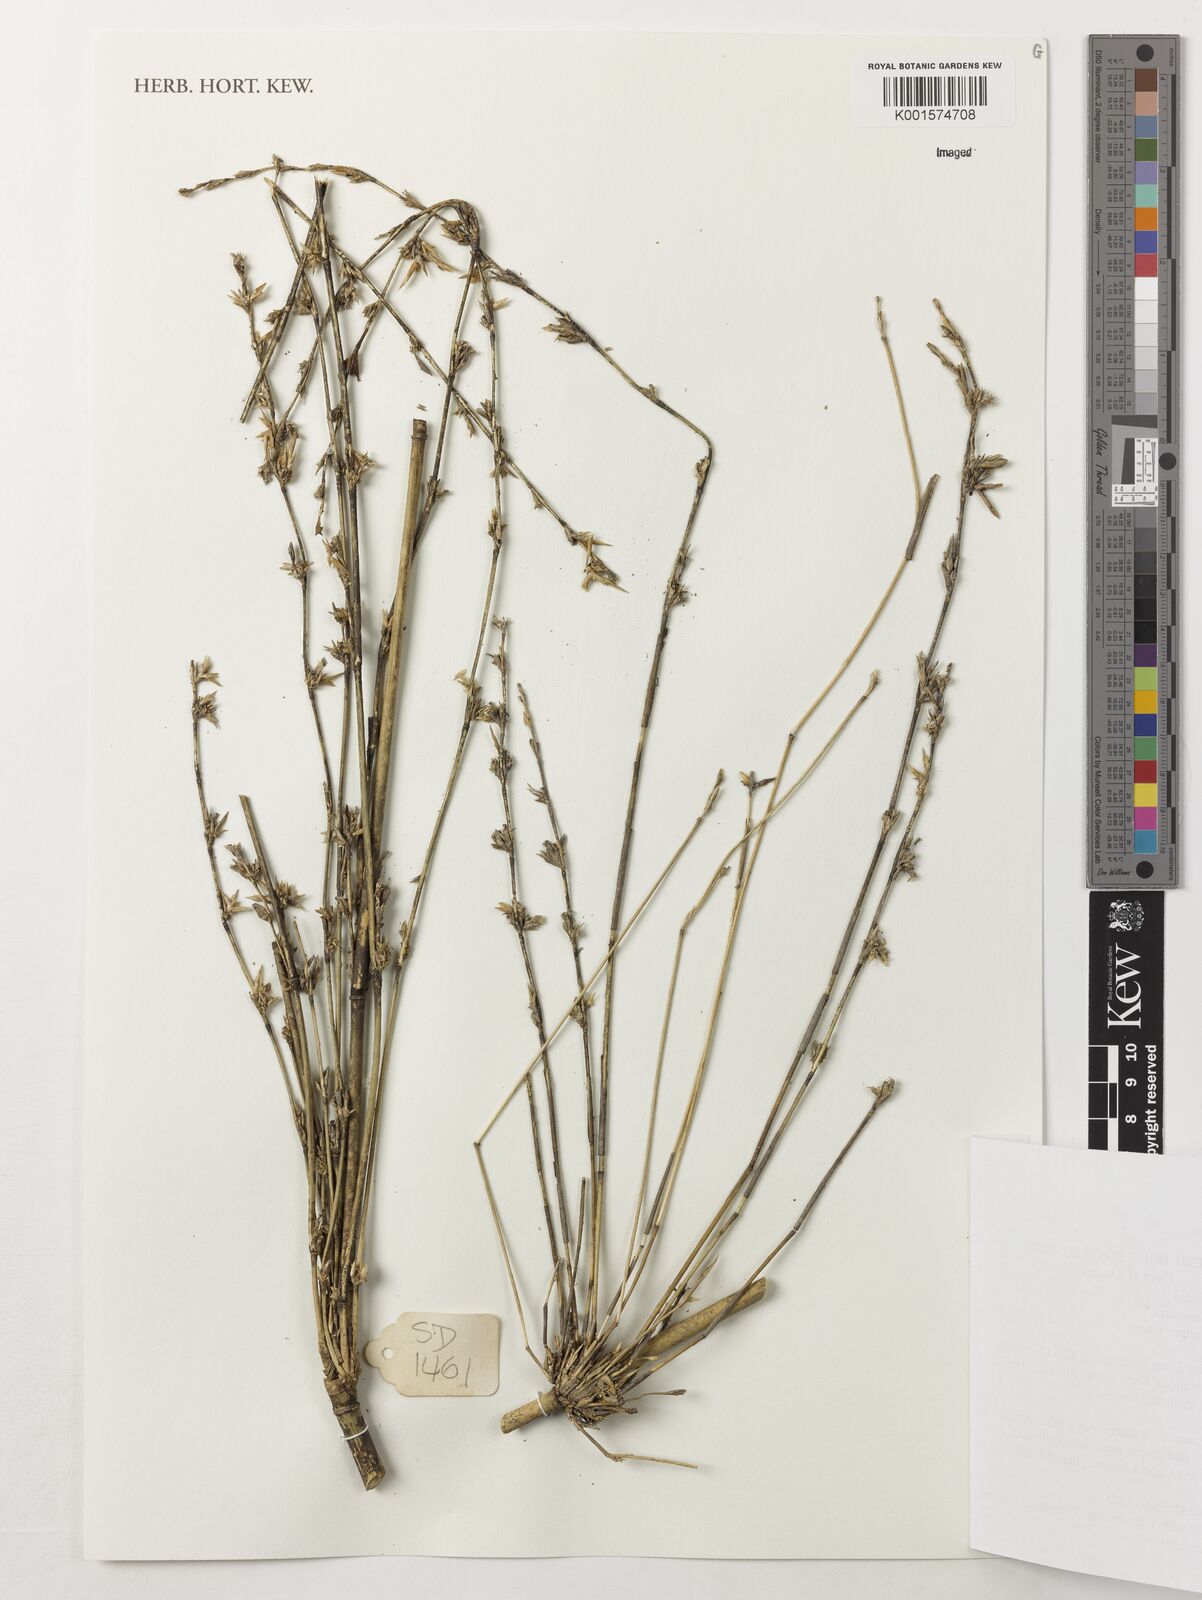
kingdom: Plantae
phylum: Tracheophyta
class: Liliopsida
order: Poales
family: Poaceae
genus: Vietnamosasa
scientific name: Vietnamosasa
